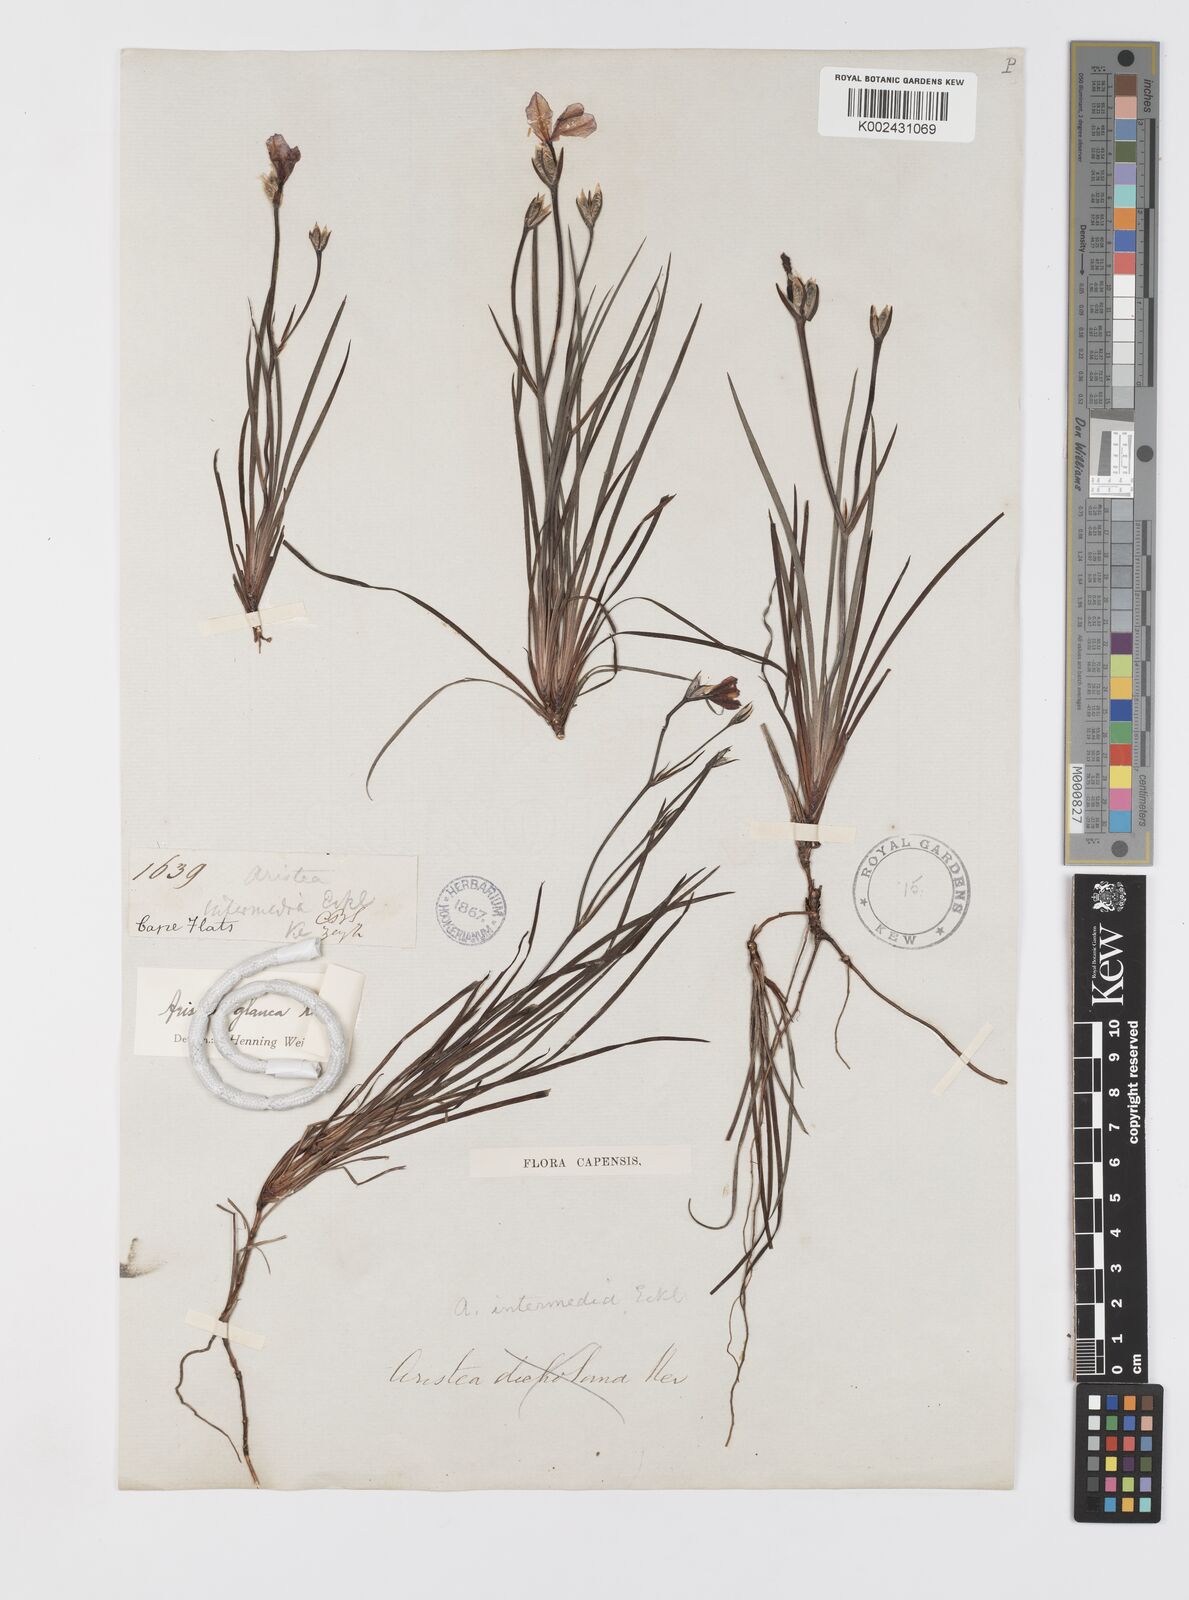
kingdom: Plantae
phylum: Tracheophyta
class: Liliopsida
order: Asparagales
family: Iridaceae
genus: Aristea
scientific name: Aristea glauca
